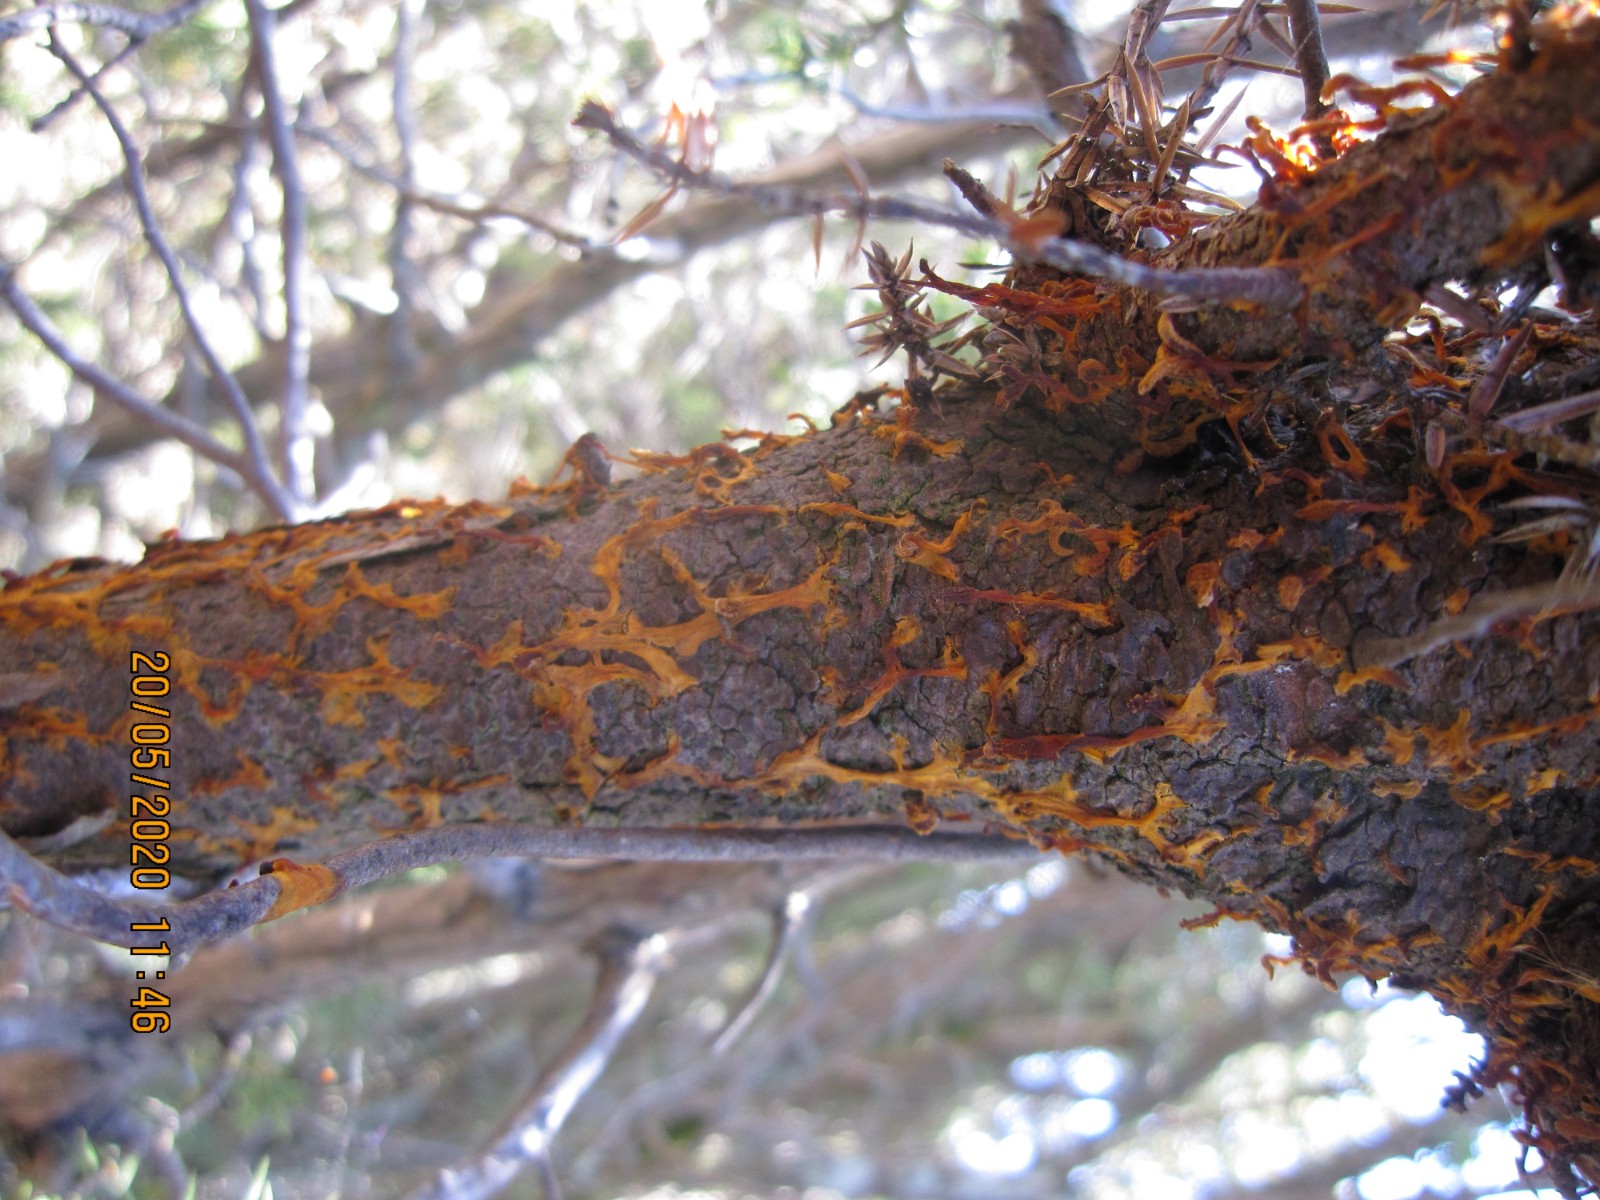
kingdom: Fungi
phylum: Basidiomycota
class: Pucciniomycetes
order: Pucciniales
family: Gymnosporangiaceae
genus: Gymnosporangium
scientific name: Gymnosporangium clavariiforme
